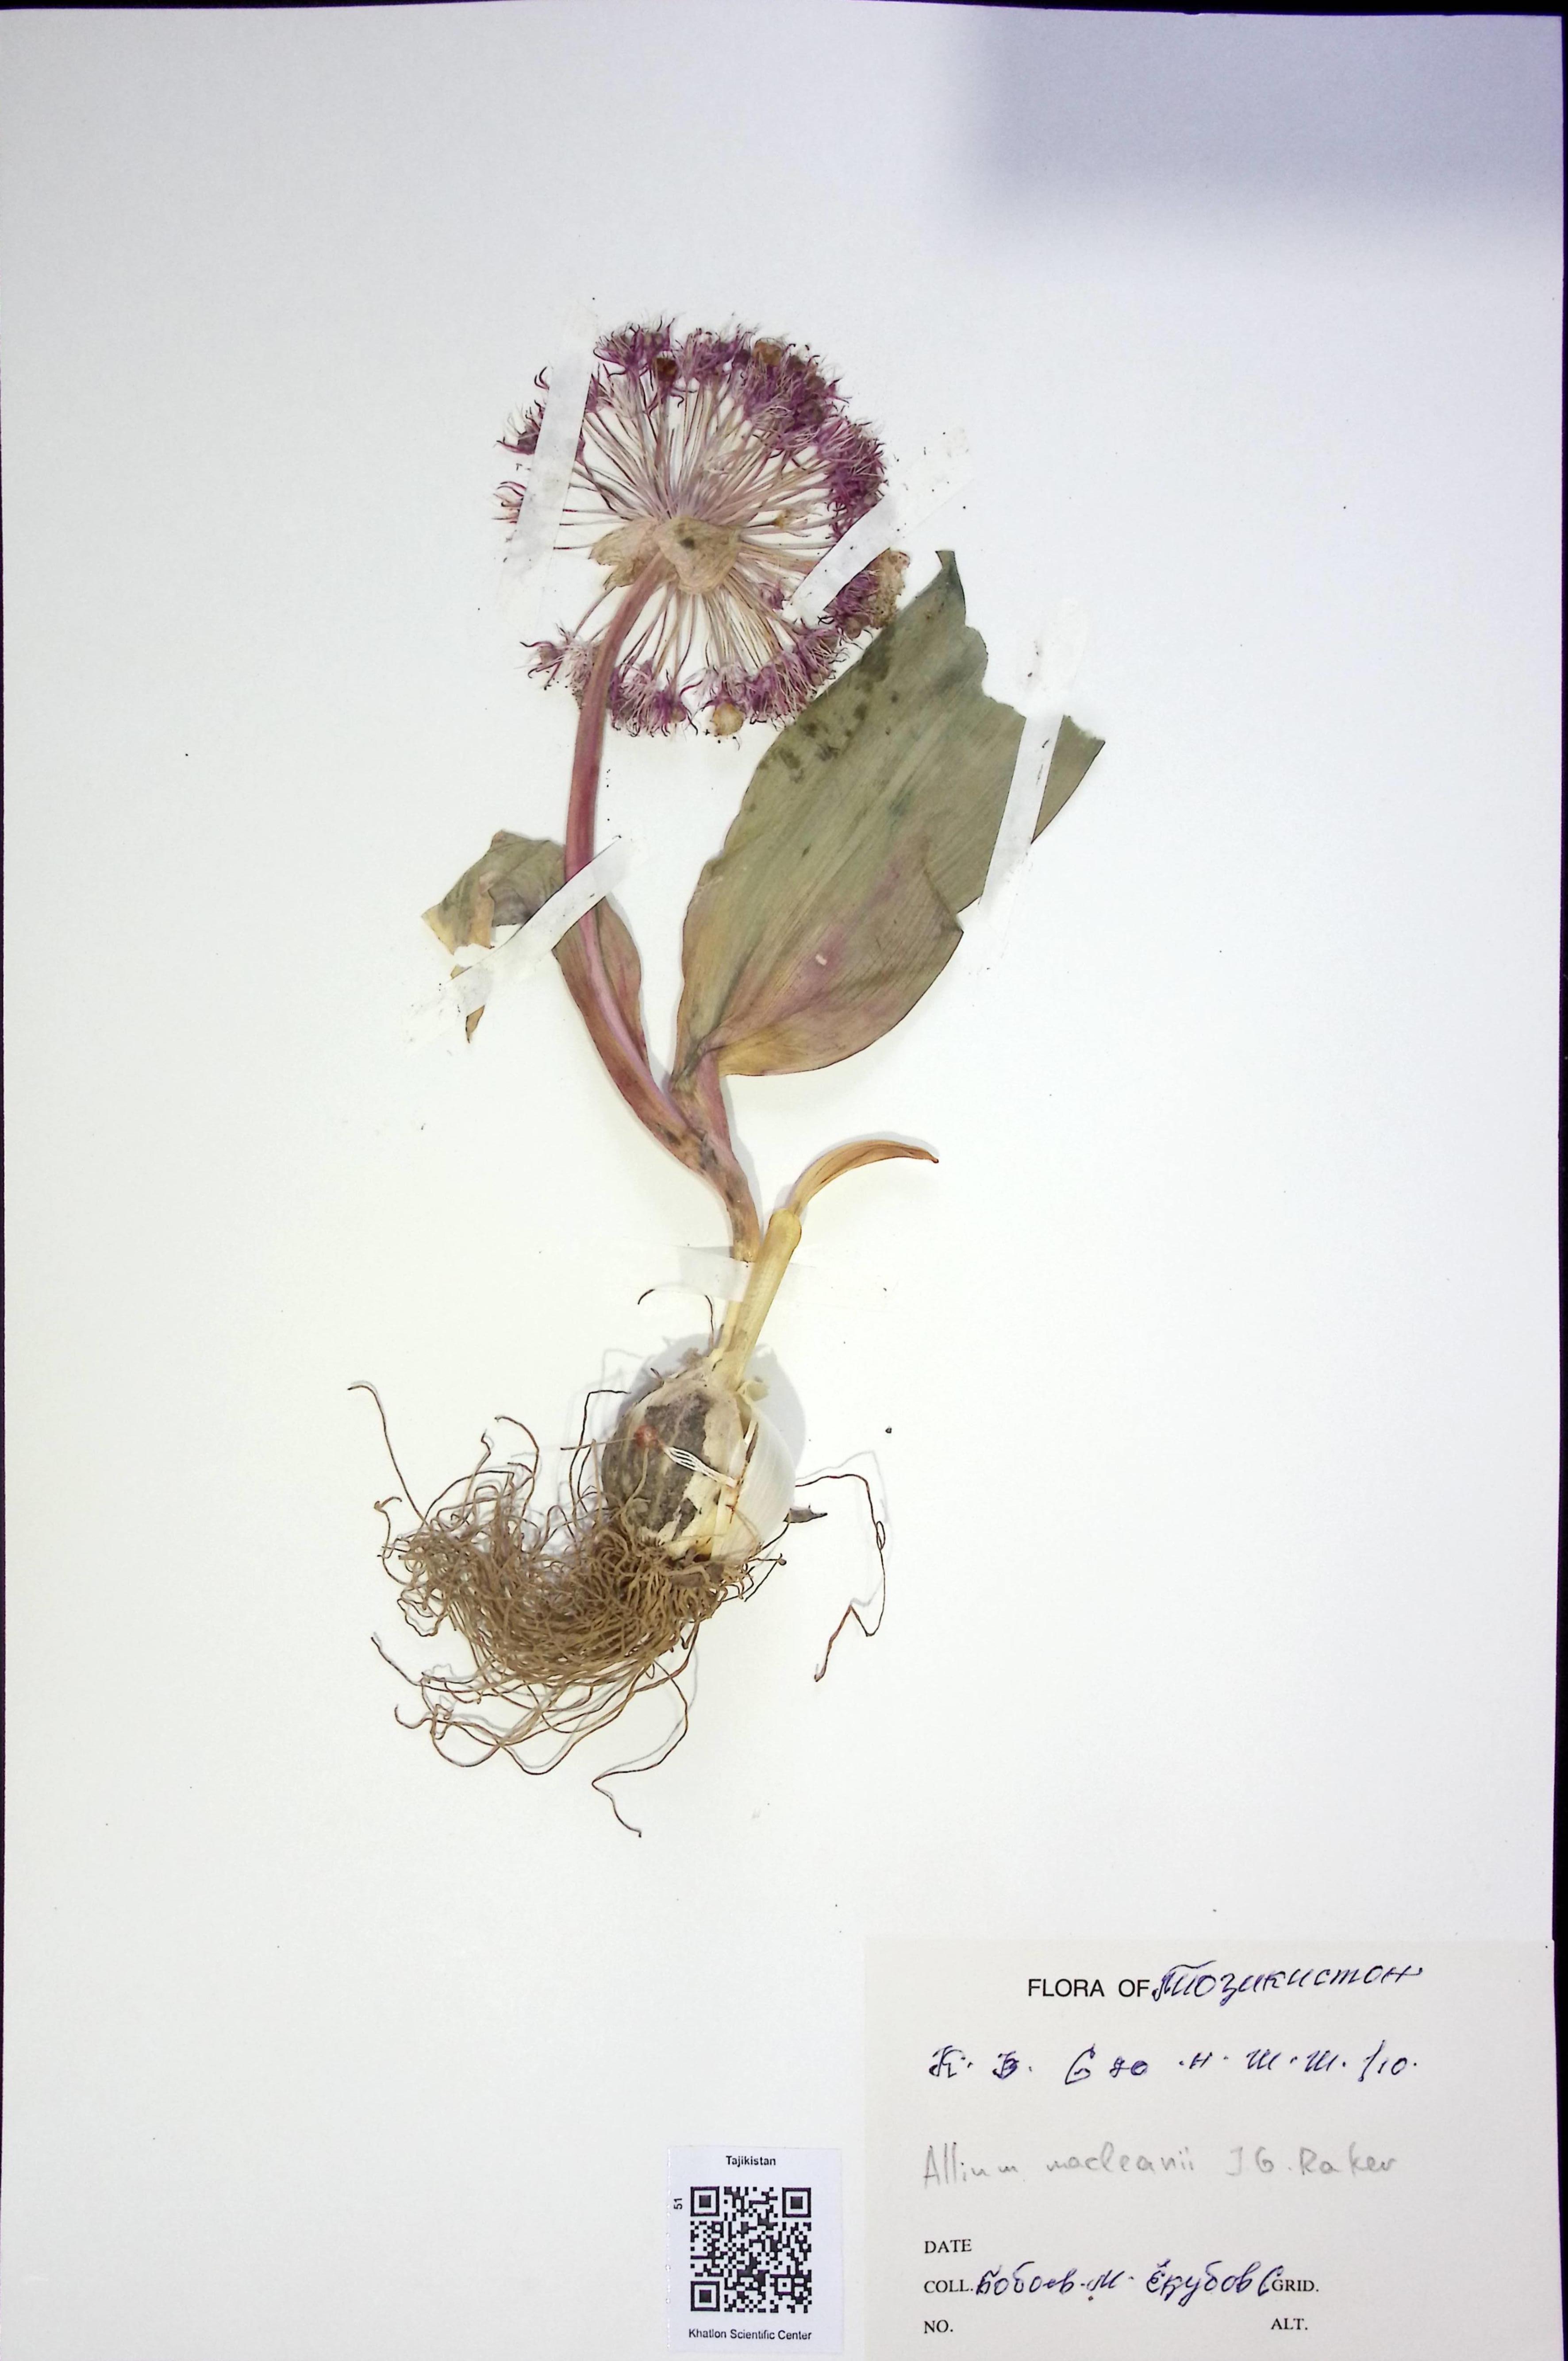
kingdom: Plantae
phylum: Tracheophyta
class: Liliopsida
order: Asparagales
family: Amaryllidaceae
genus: Allium
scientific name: Allium macleanii
